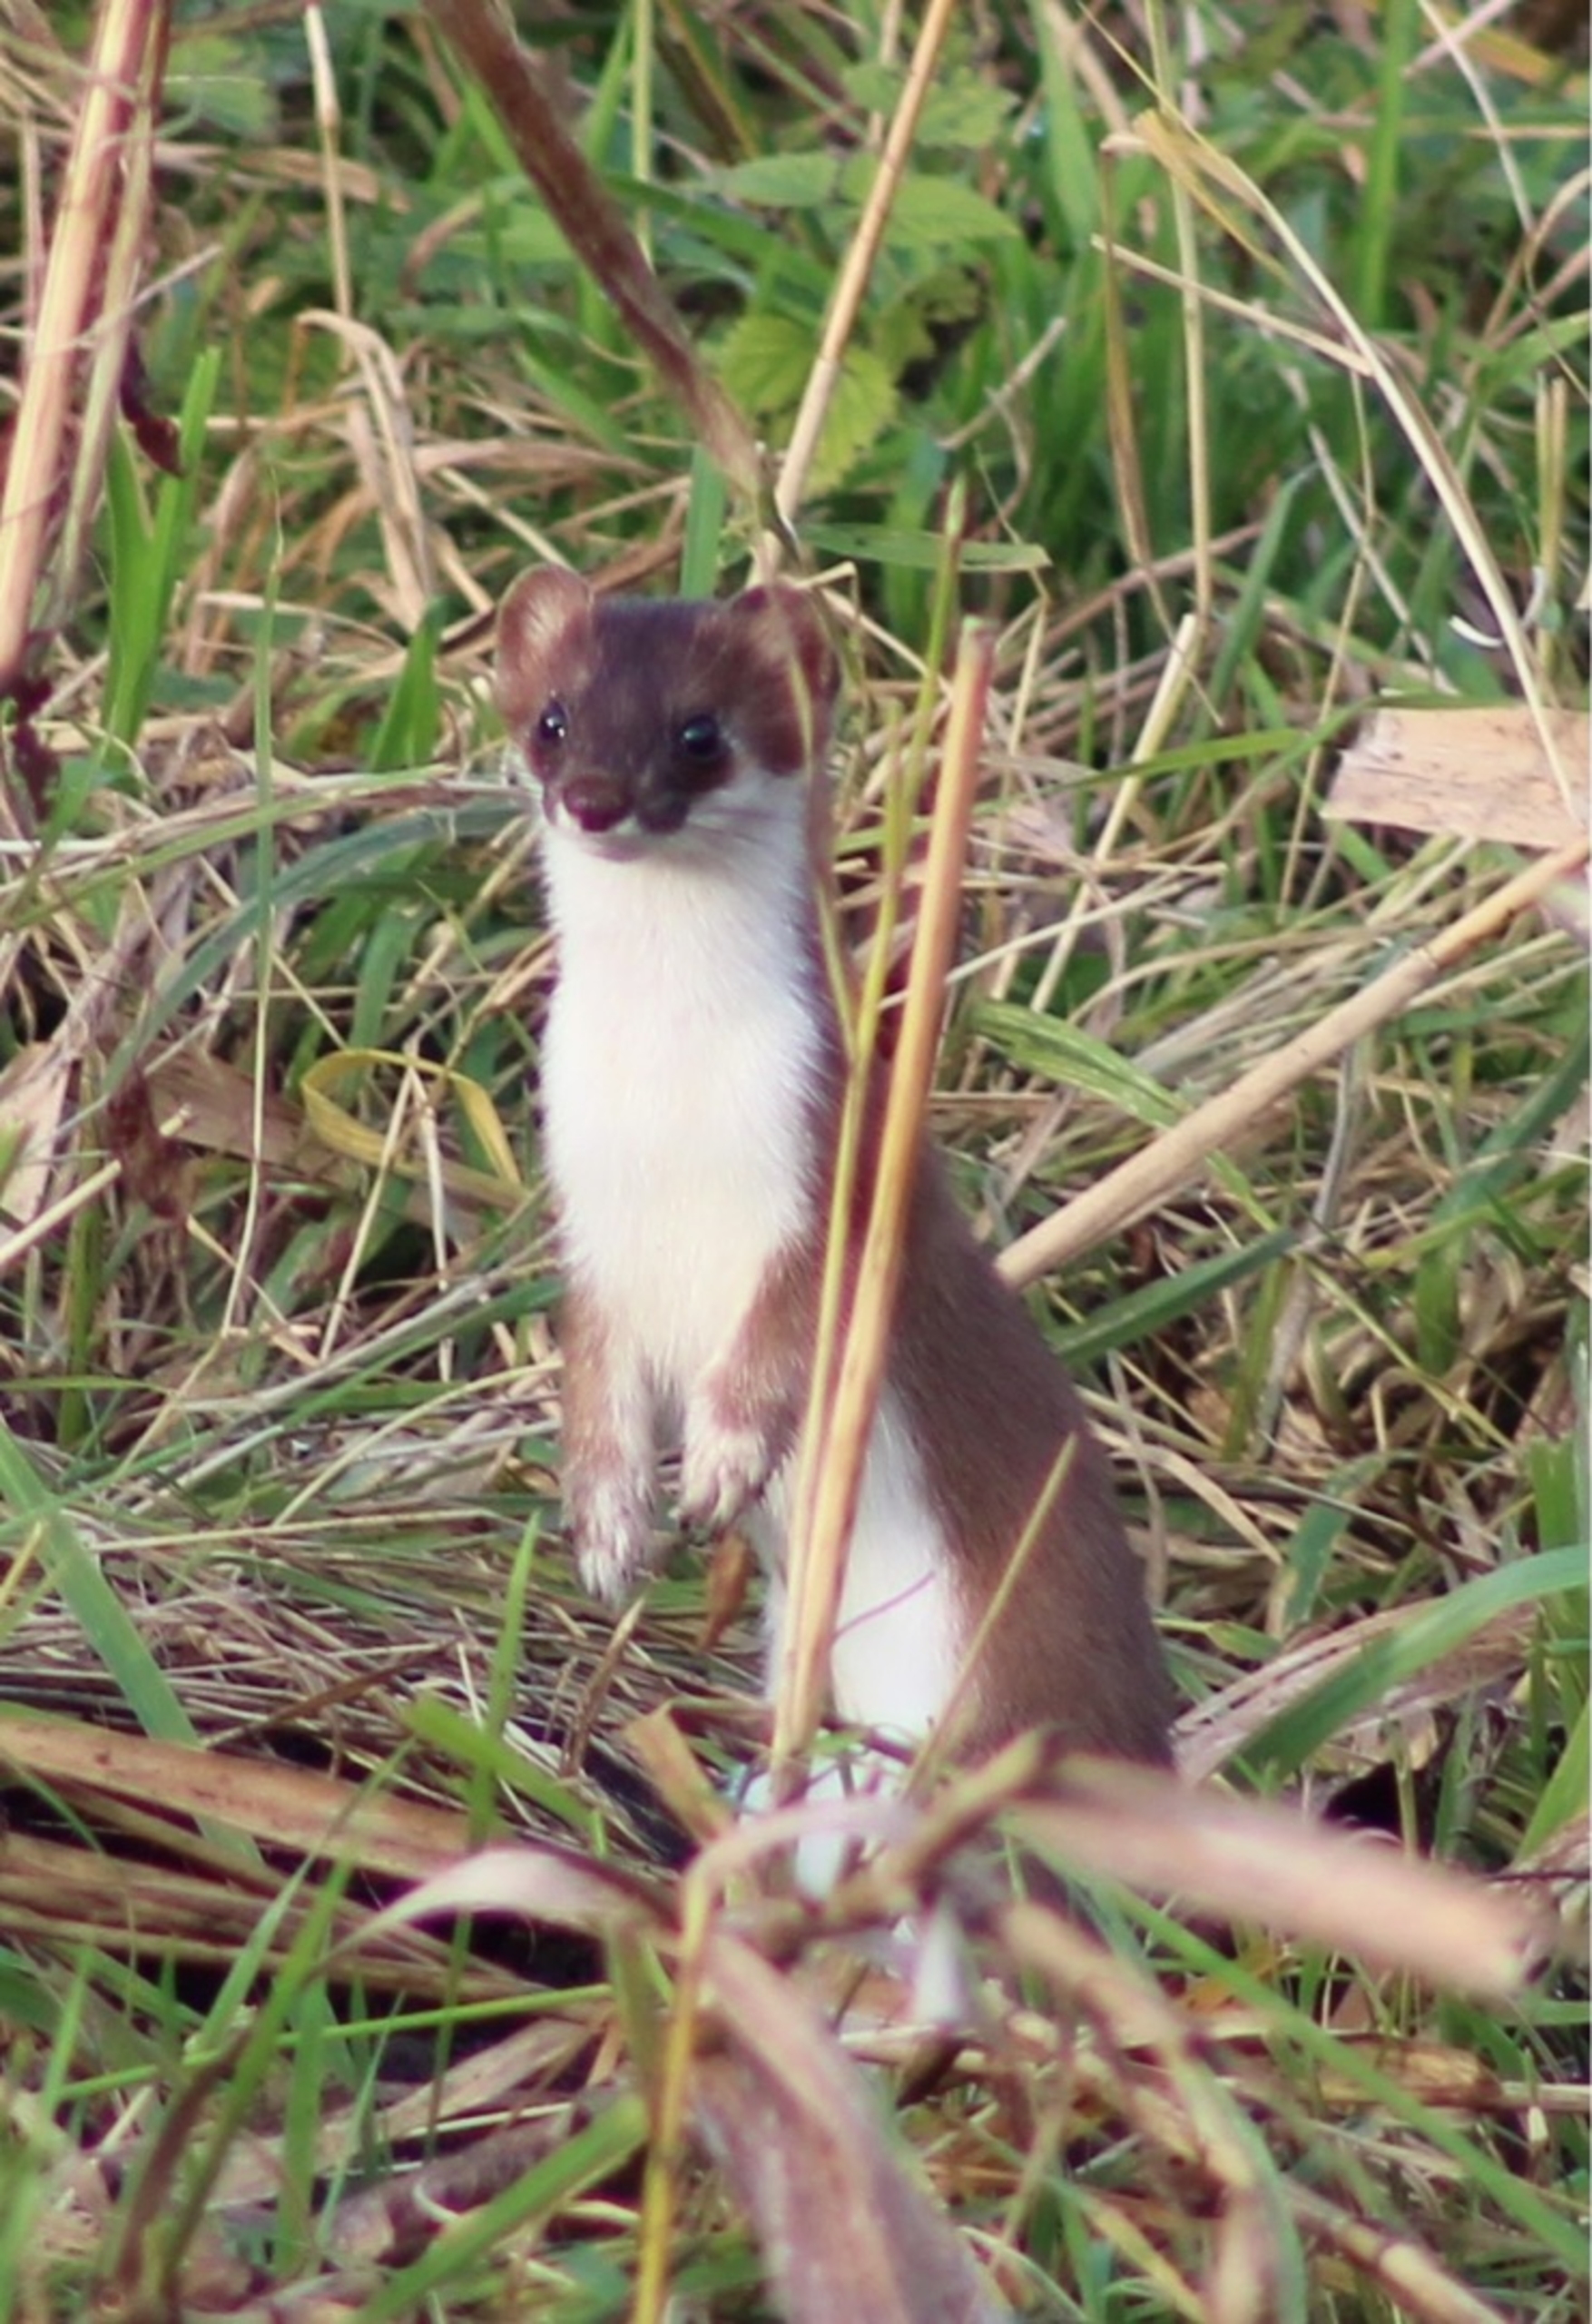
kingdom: Animalia
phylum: Chordata
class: Mammalia
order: Carnivora
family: Mustelidae
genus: Mustela
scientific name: Mustela erminea
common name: Lækat
